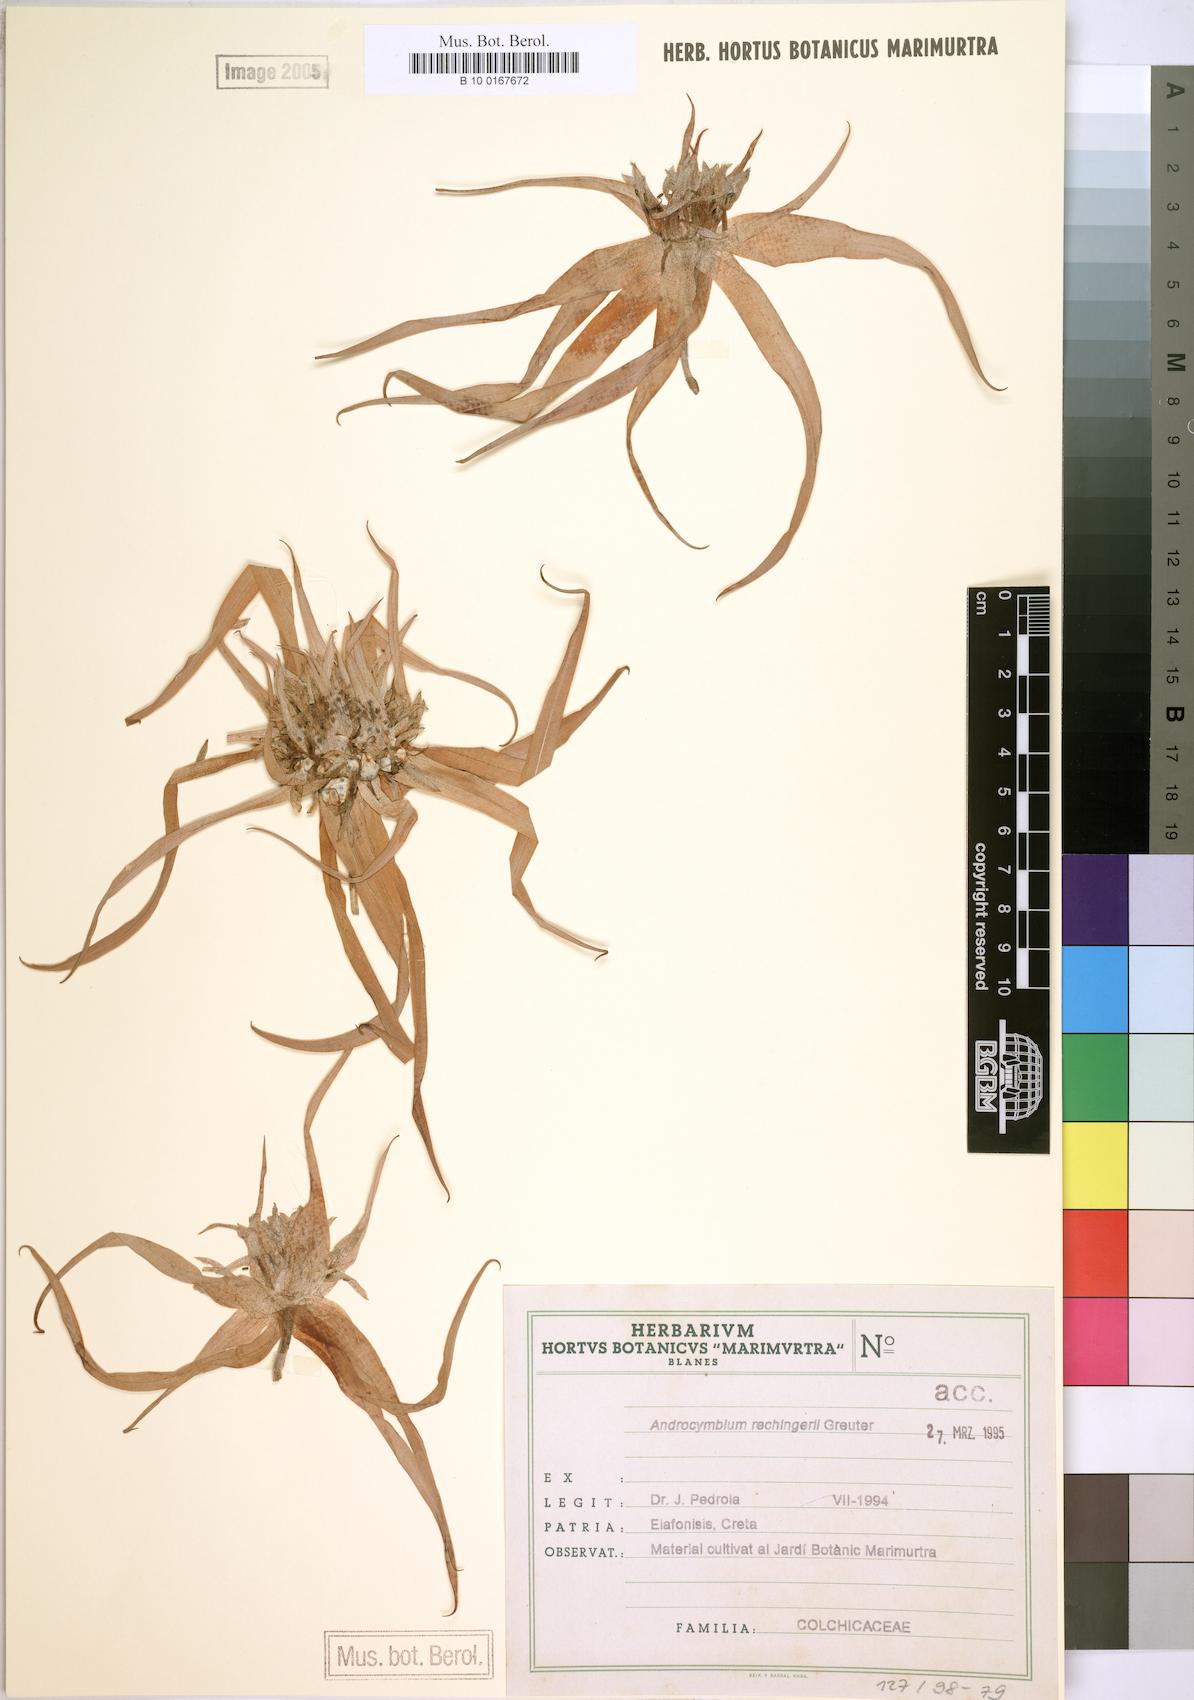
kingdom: Plantae
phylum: Tracheophyta
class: Liliopsida
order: Liliales
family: Colchicaceae
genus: Colchicum
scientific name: Colchicum rechingeri
